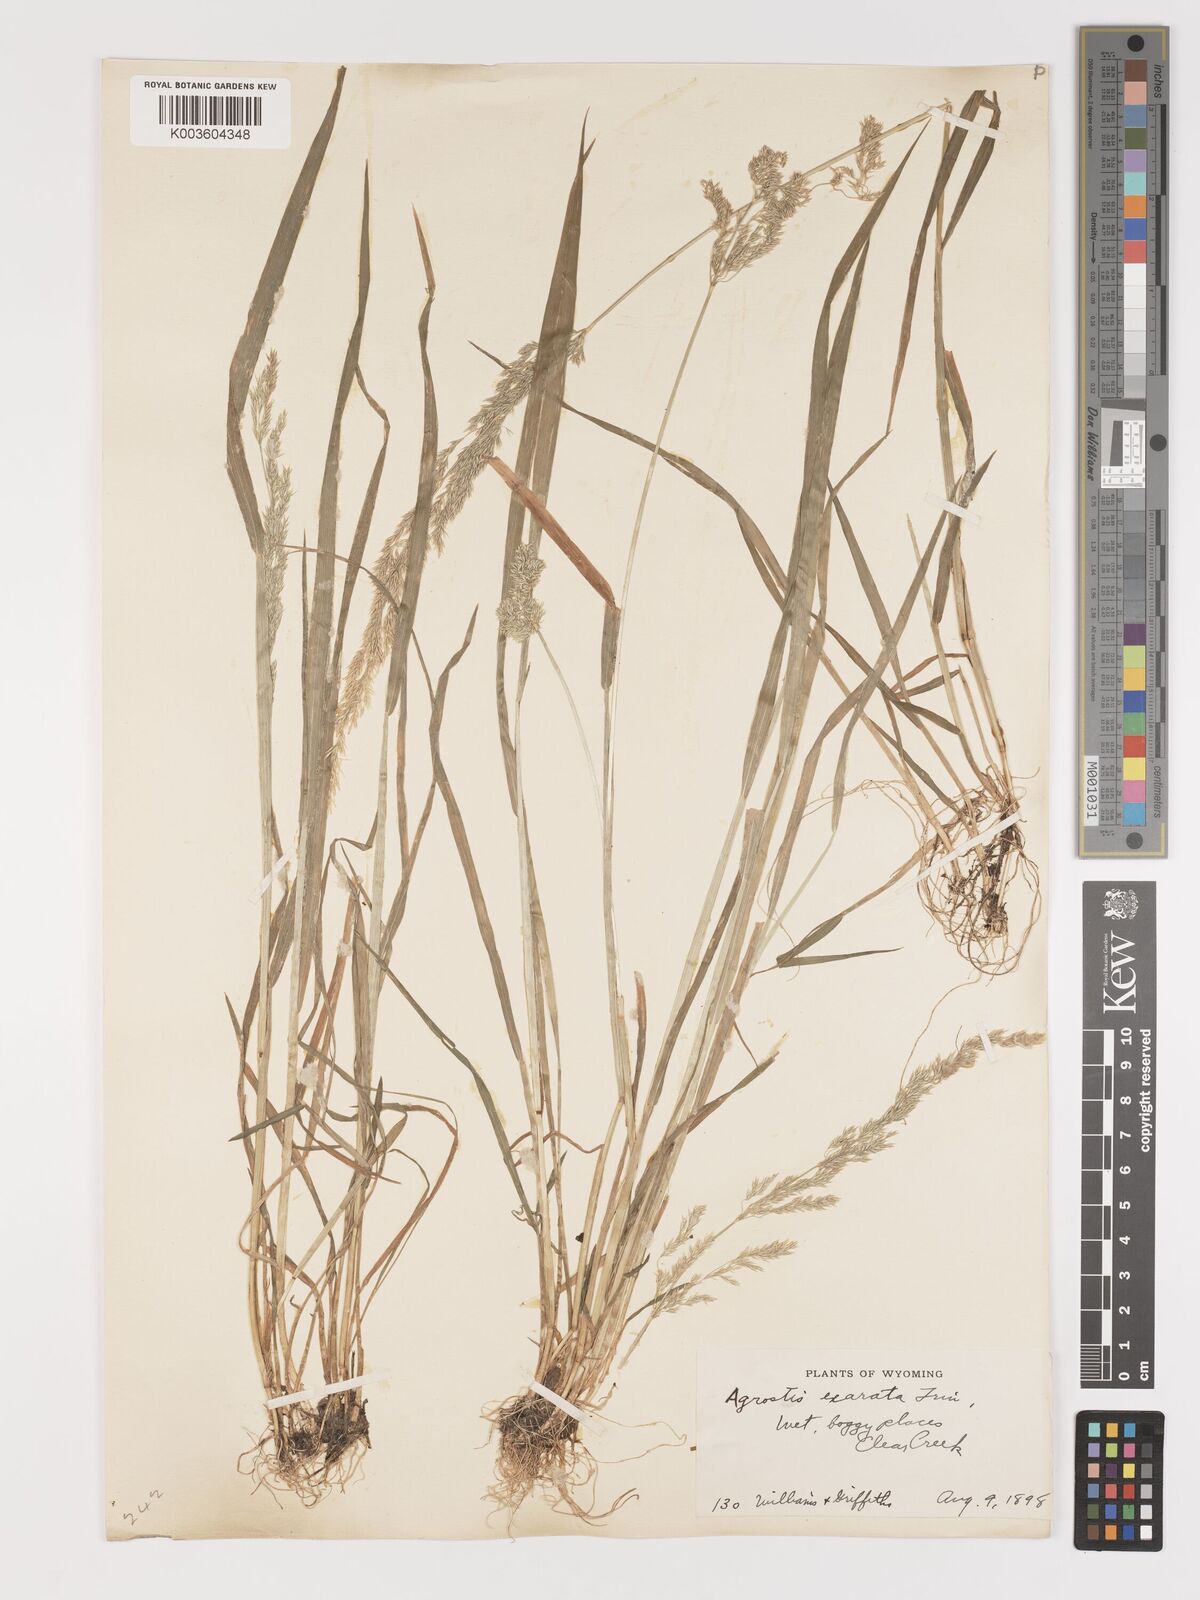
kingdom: Plantae
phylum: Tracheophyta
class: Liliopsida
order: Poales
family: Poaceae
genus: Agrostis
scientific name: Agrostis exarata
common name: Spike bent
